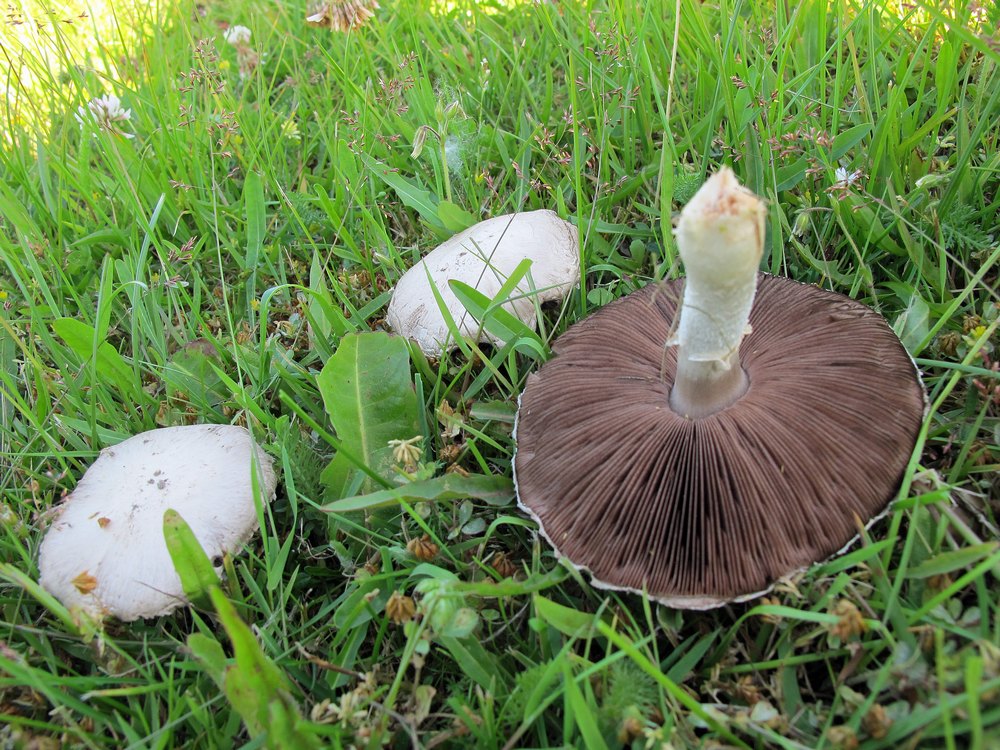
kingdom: Fungi
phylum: Basidiomycota
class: Agaricomycetes
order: Agaricales
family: Agaricaceae
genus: Agaricus
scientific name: Agaricus campestris
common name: mark-champignon
